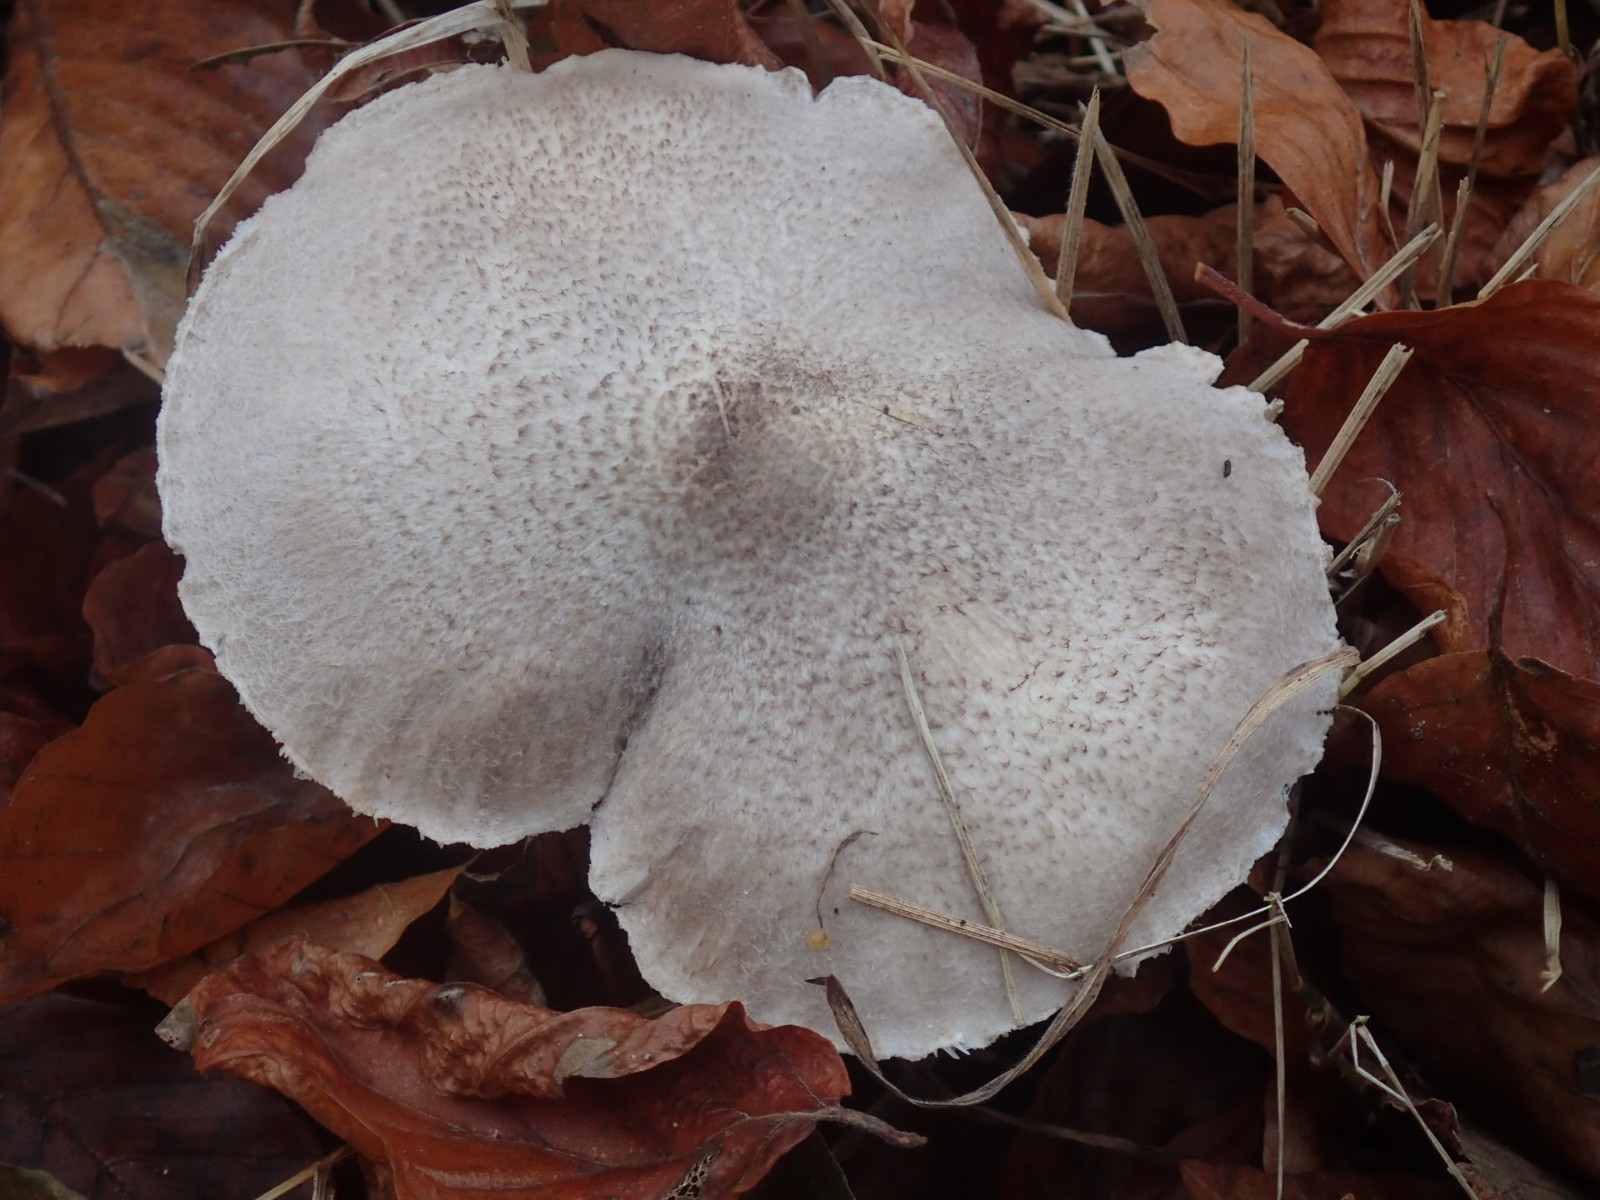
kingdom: Fungi
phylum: Basidiomycota
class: Agaricomycetes
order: Agaricales
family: Tricholomataceae
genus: Tricholoma
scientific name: Tricholoma
